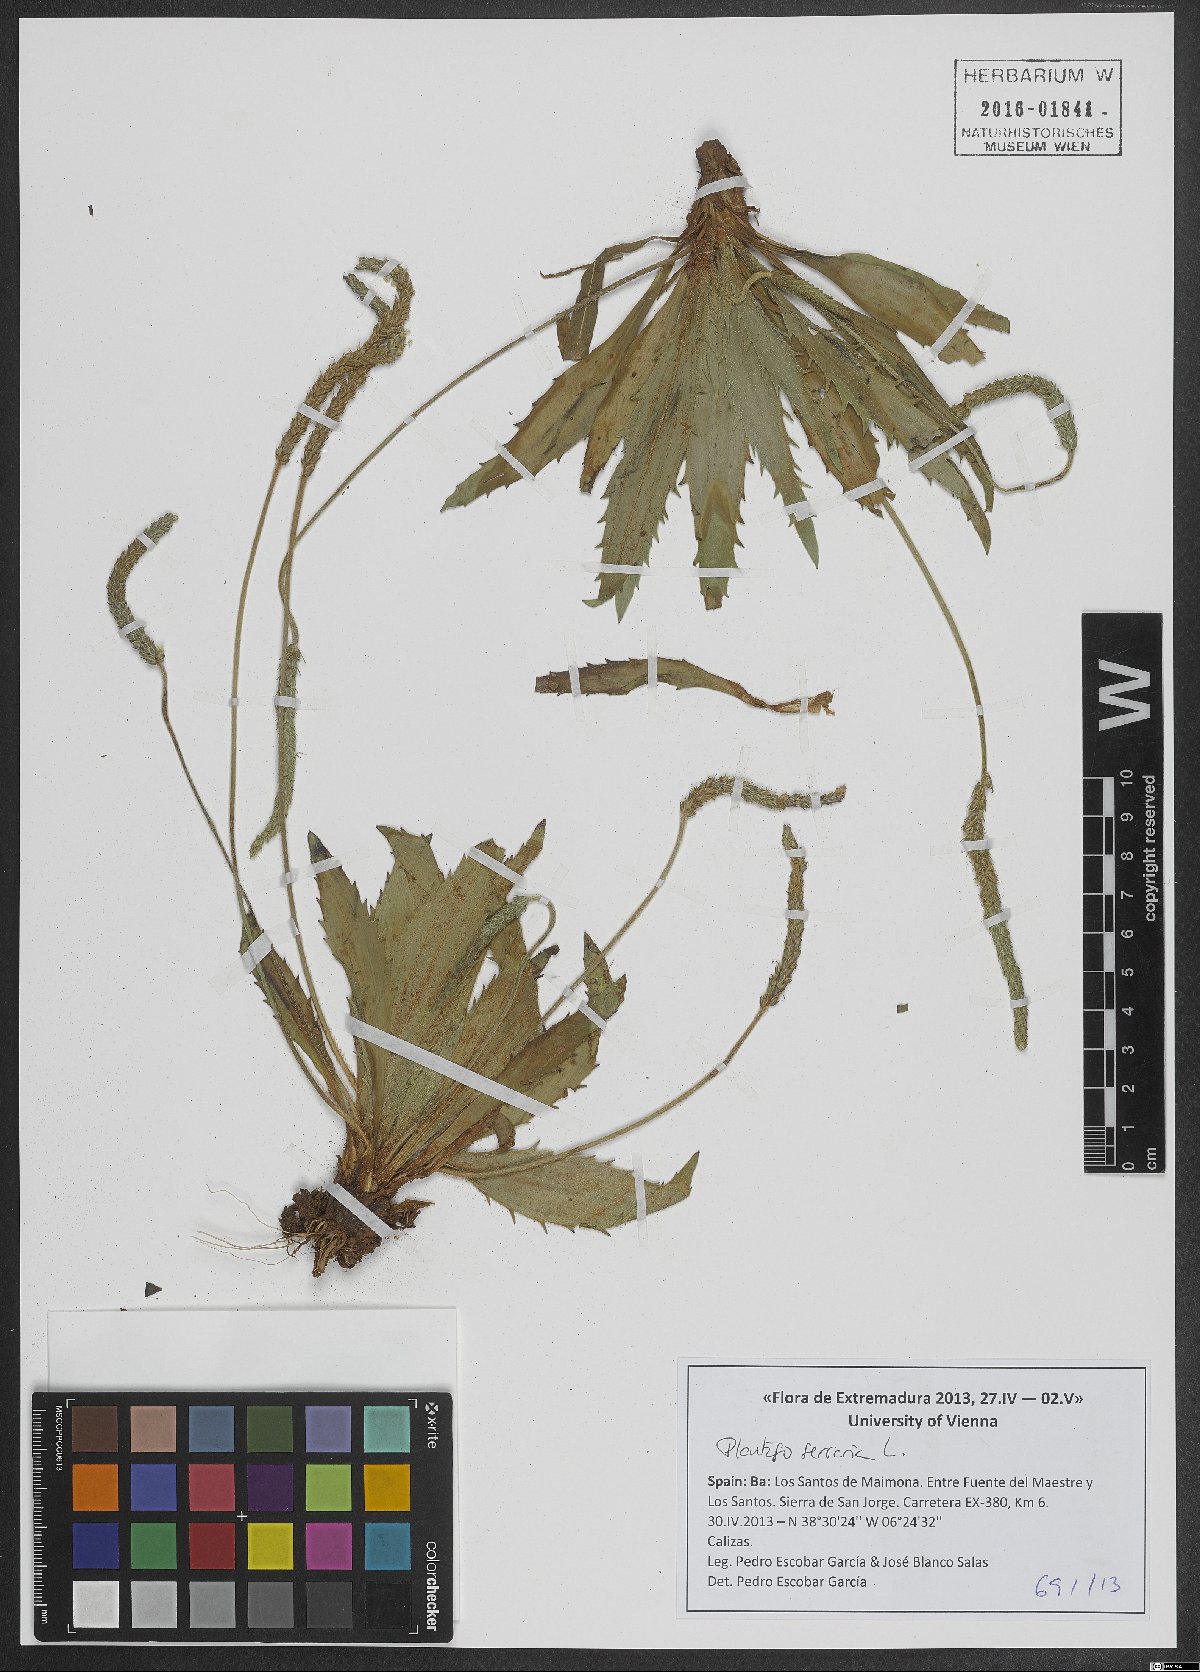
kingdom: Plantae
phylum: Tracheophyta
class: Magnoliopsida
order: Lamiales
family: Plantaginaceae
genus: Plantago
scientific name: Plantago serraria
